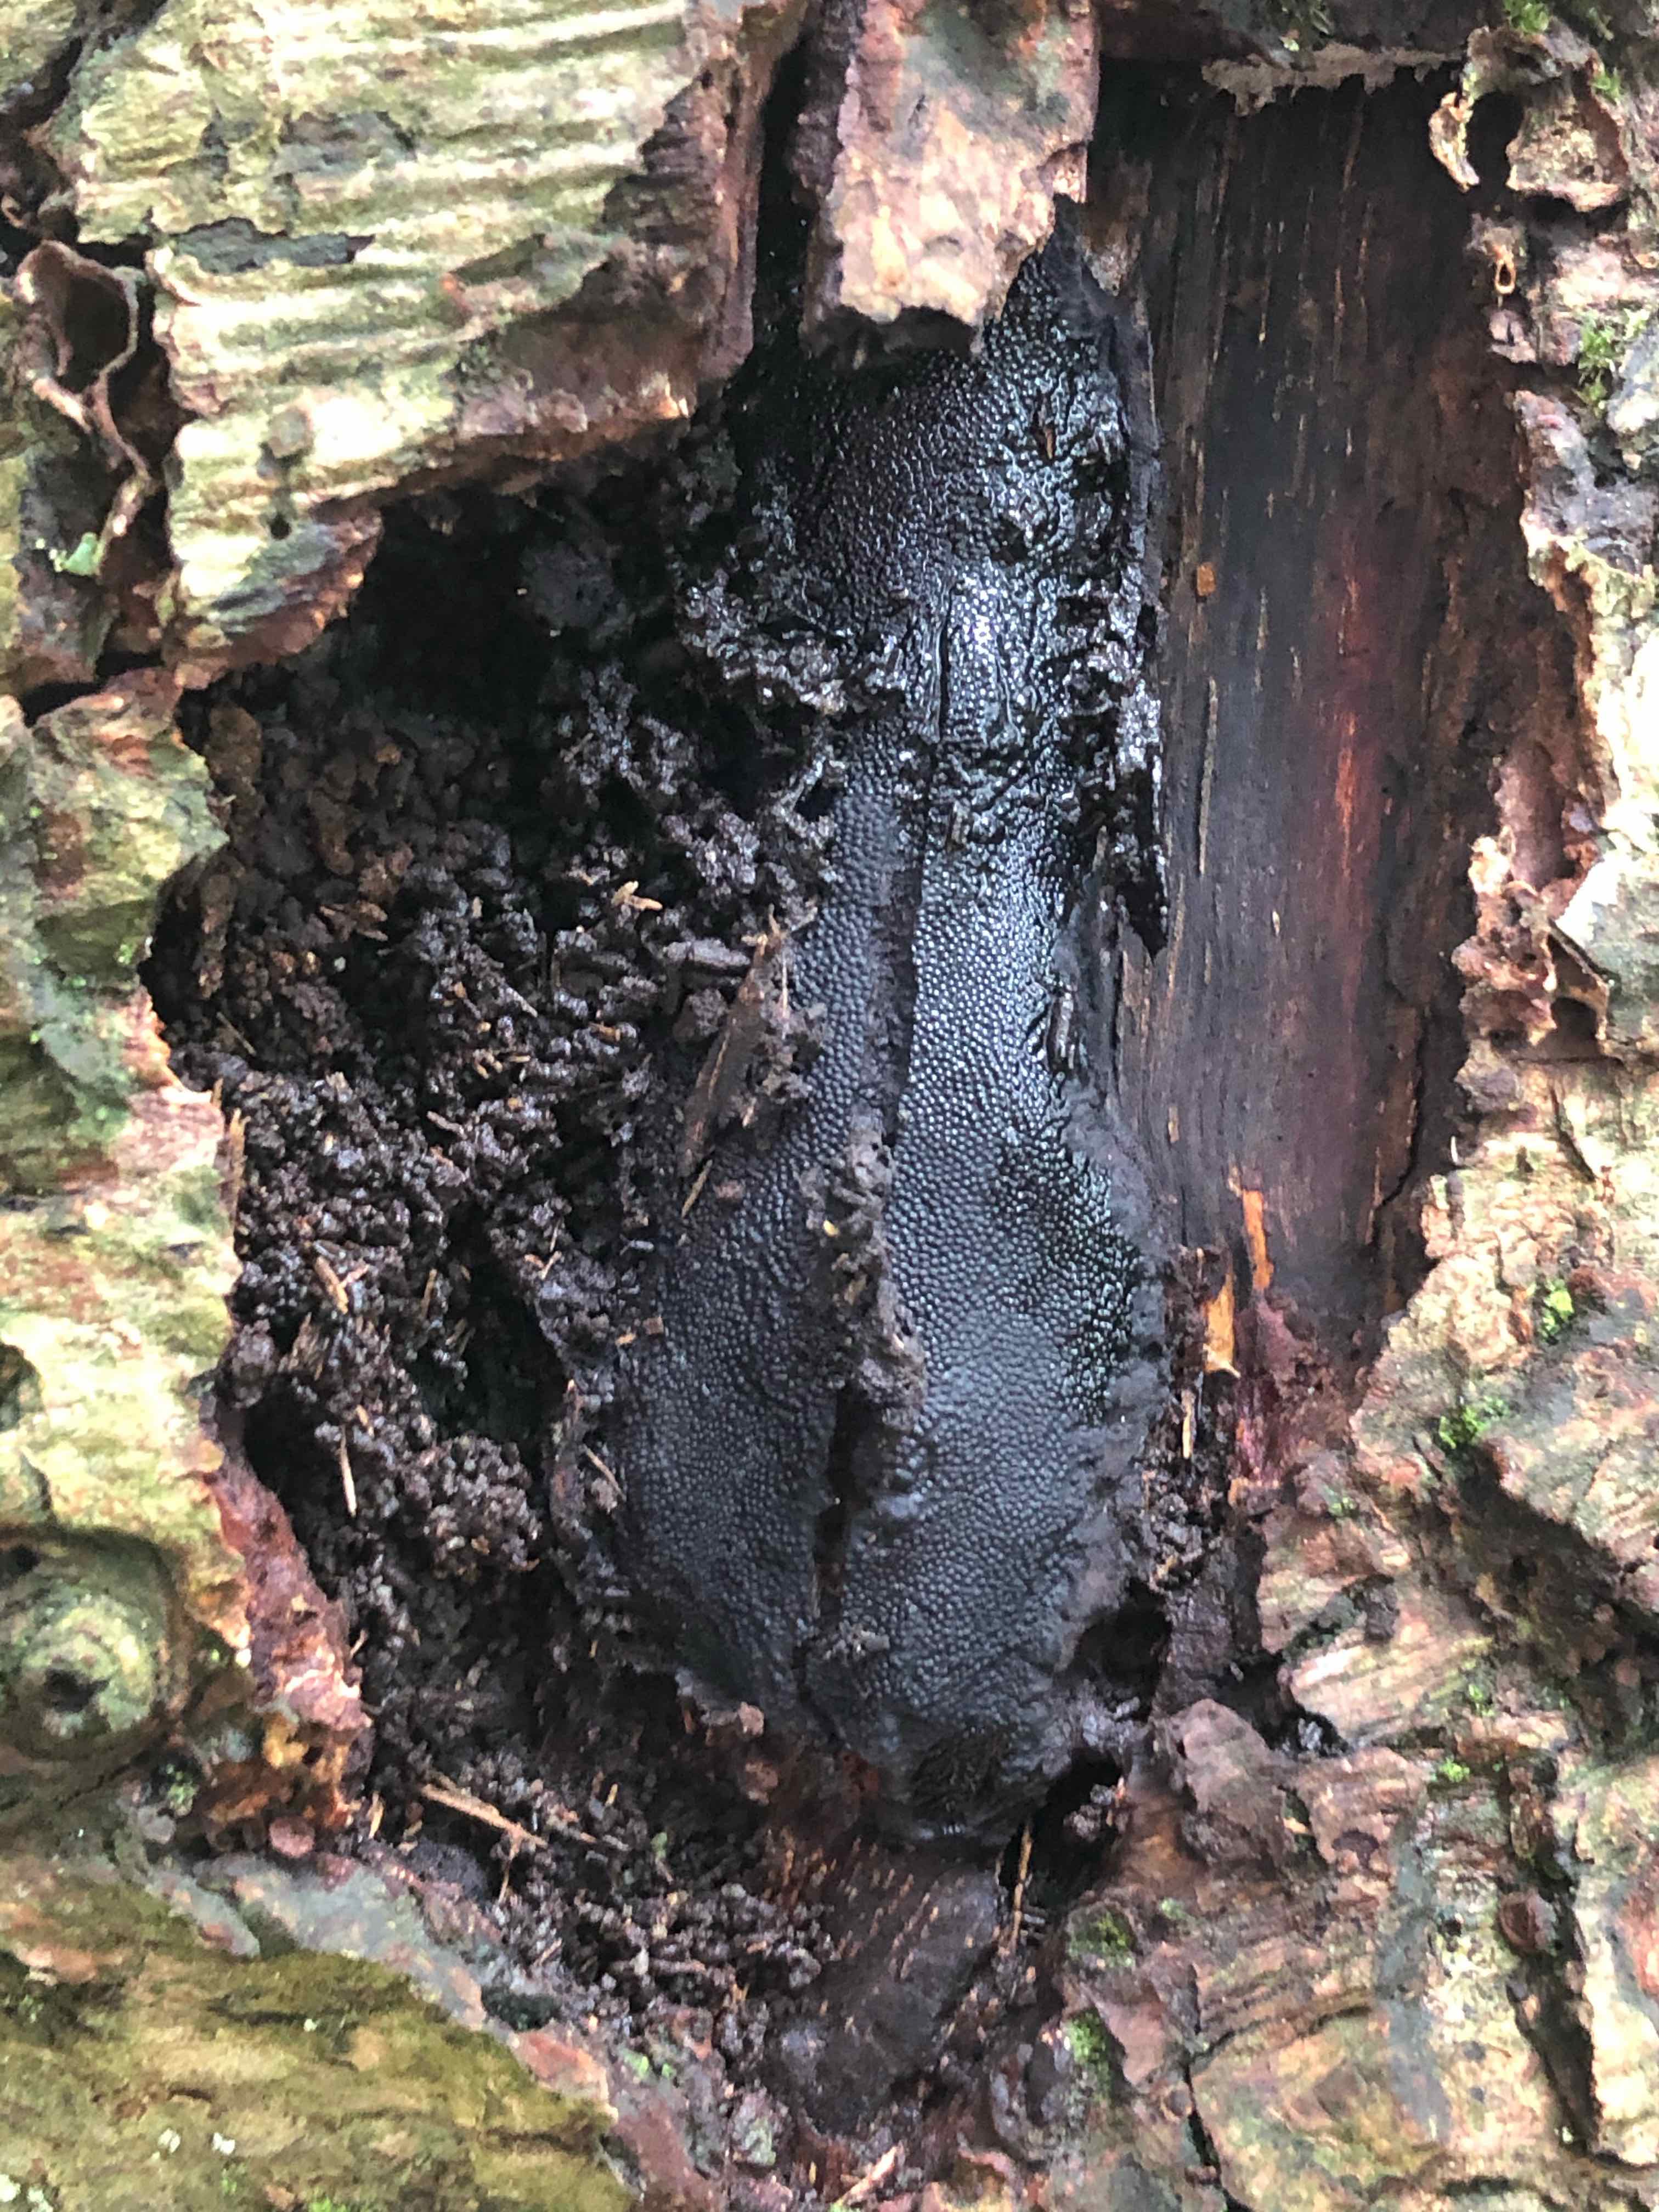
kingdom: Fungi
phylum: Ascomycota
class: Sordariomycetes
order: Boliniales
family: Boliniaceae
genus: Camarops
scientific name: Camarops polysperma
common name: elle-kulsnegl
